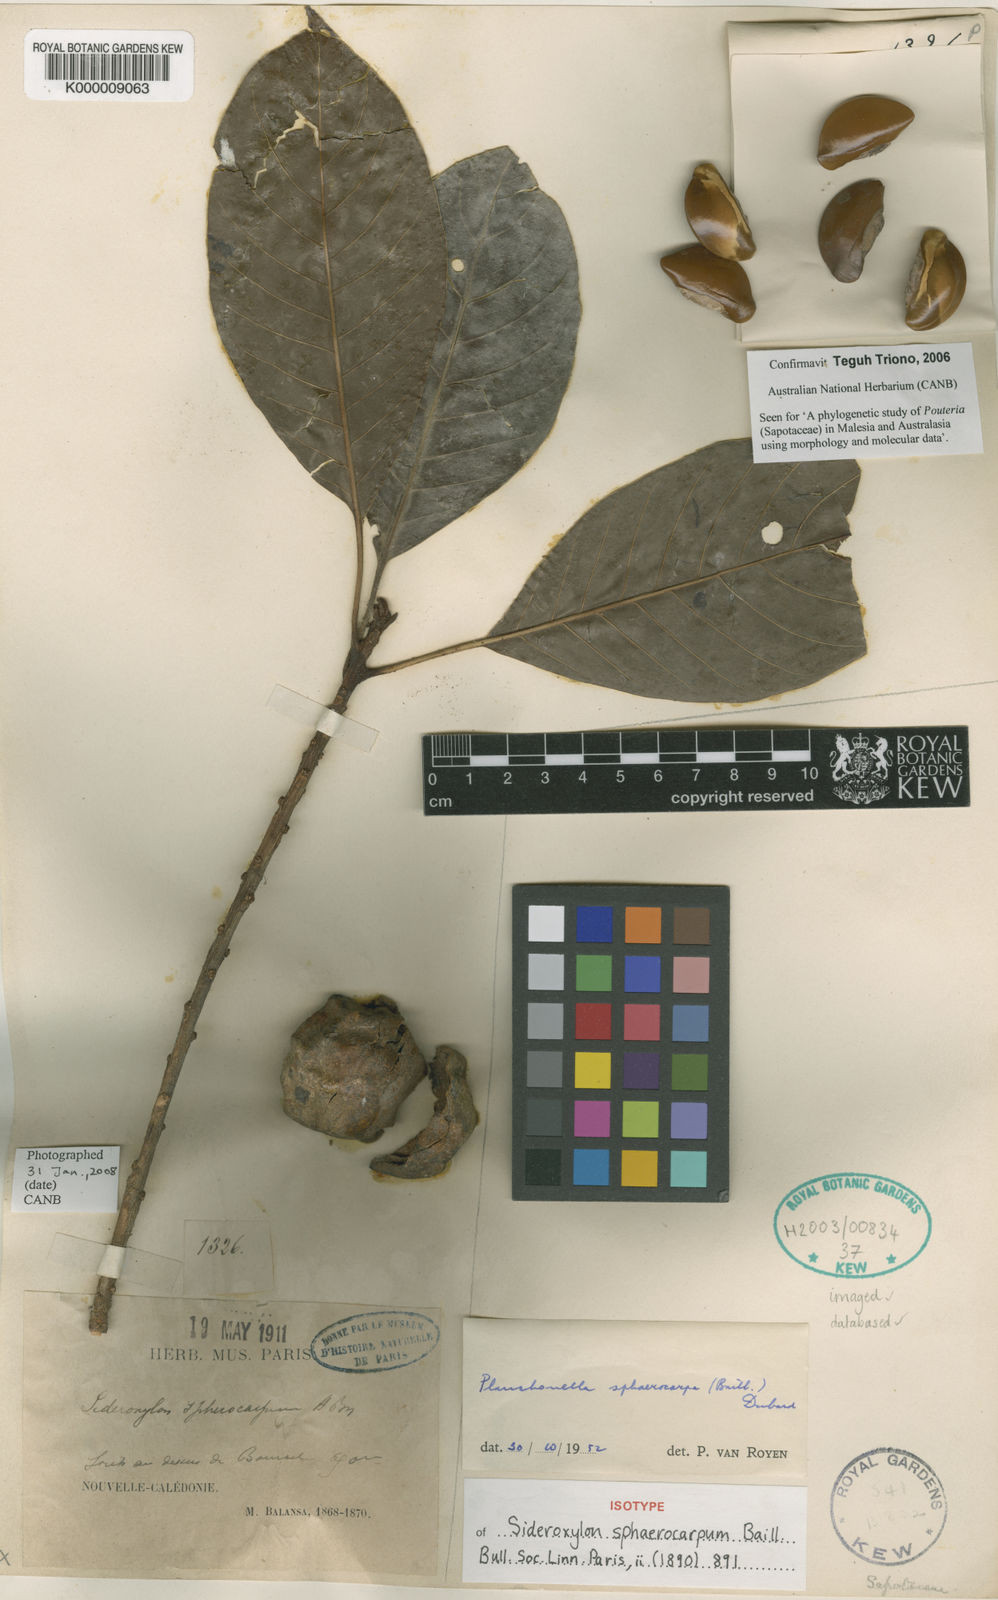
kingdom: Plantae
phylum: Tracheophyta
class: Magnoliopsida
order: Ericales
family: Sapotaceae
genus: Planchonella
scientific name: Planchonella sphaerocarpa
